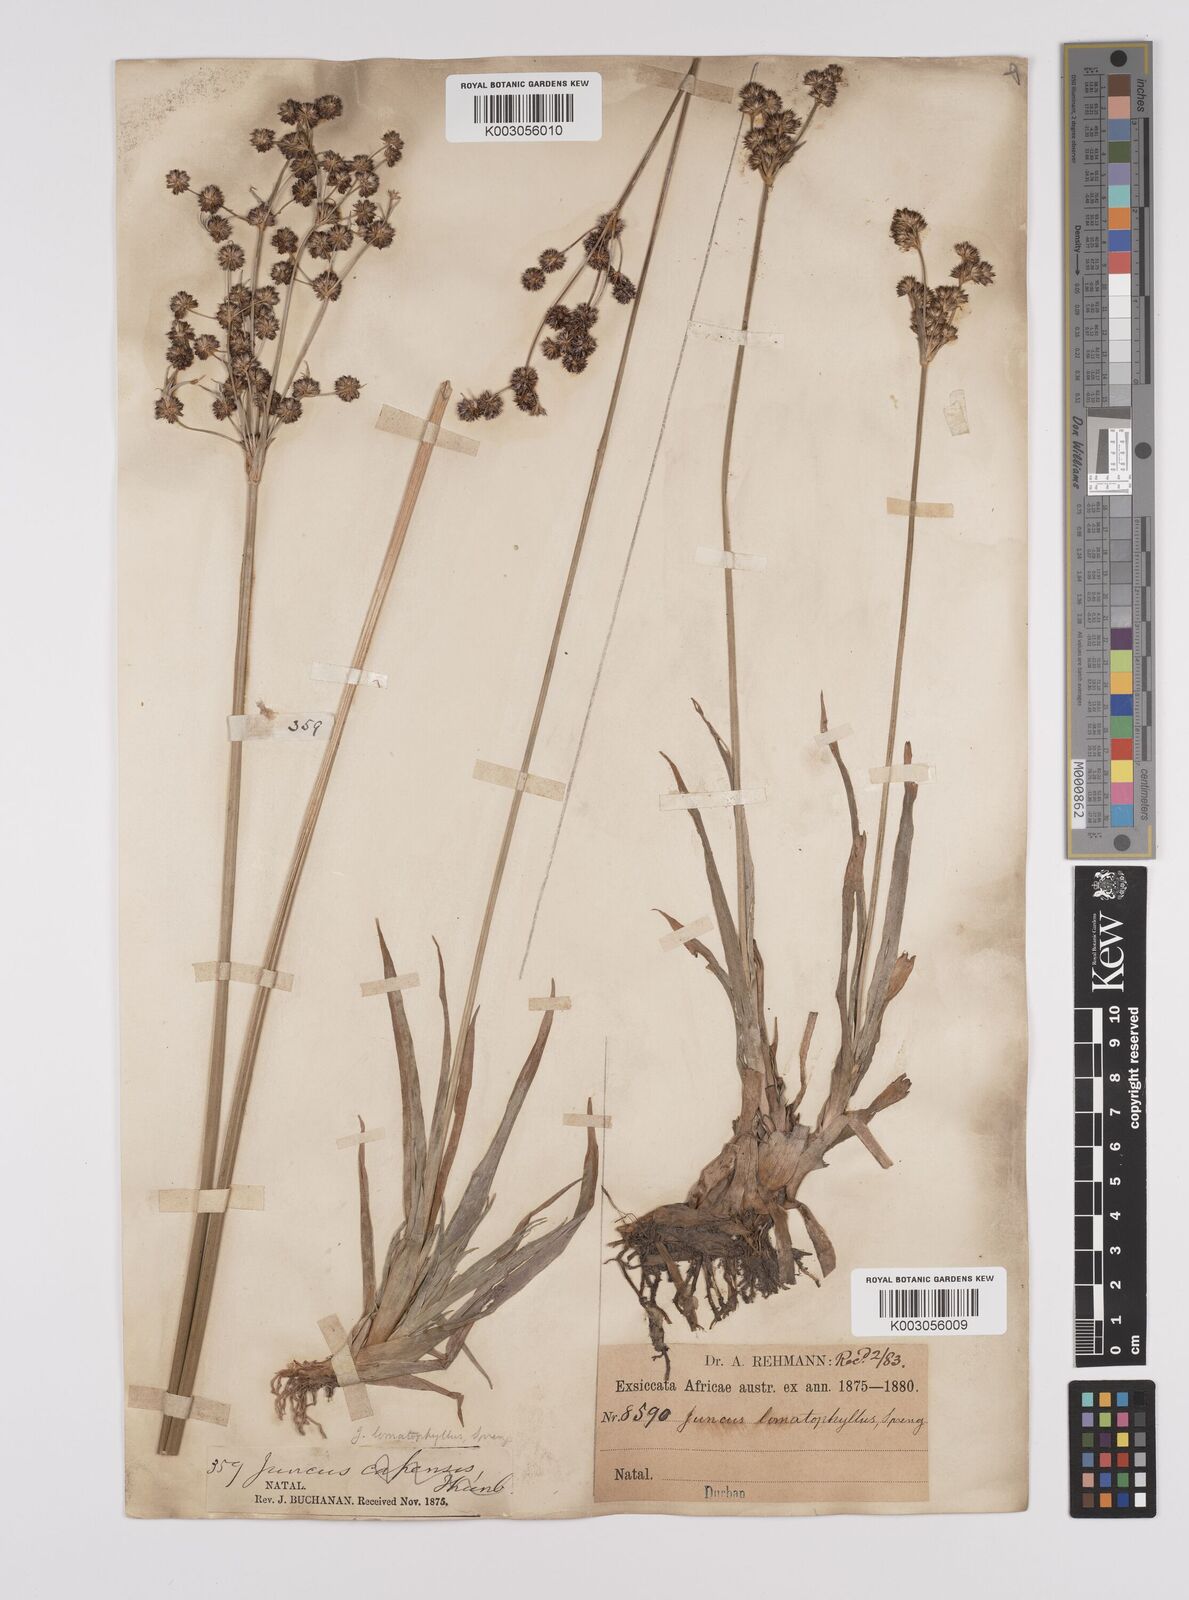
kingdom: Plantae
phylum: Tracheophyta
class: Liliopsida
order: Poales
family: Juncaceae
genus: Juncus
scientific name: Juncus lomatophyllus
